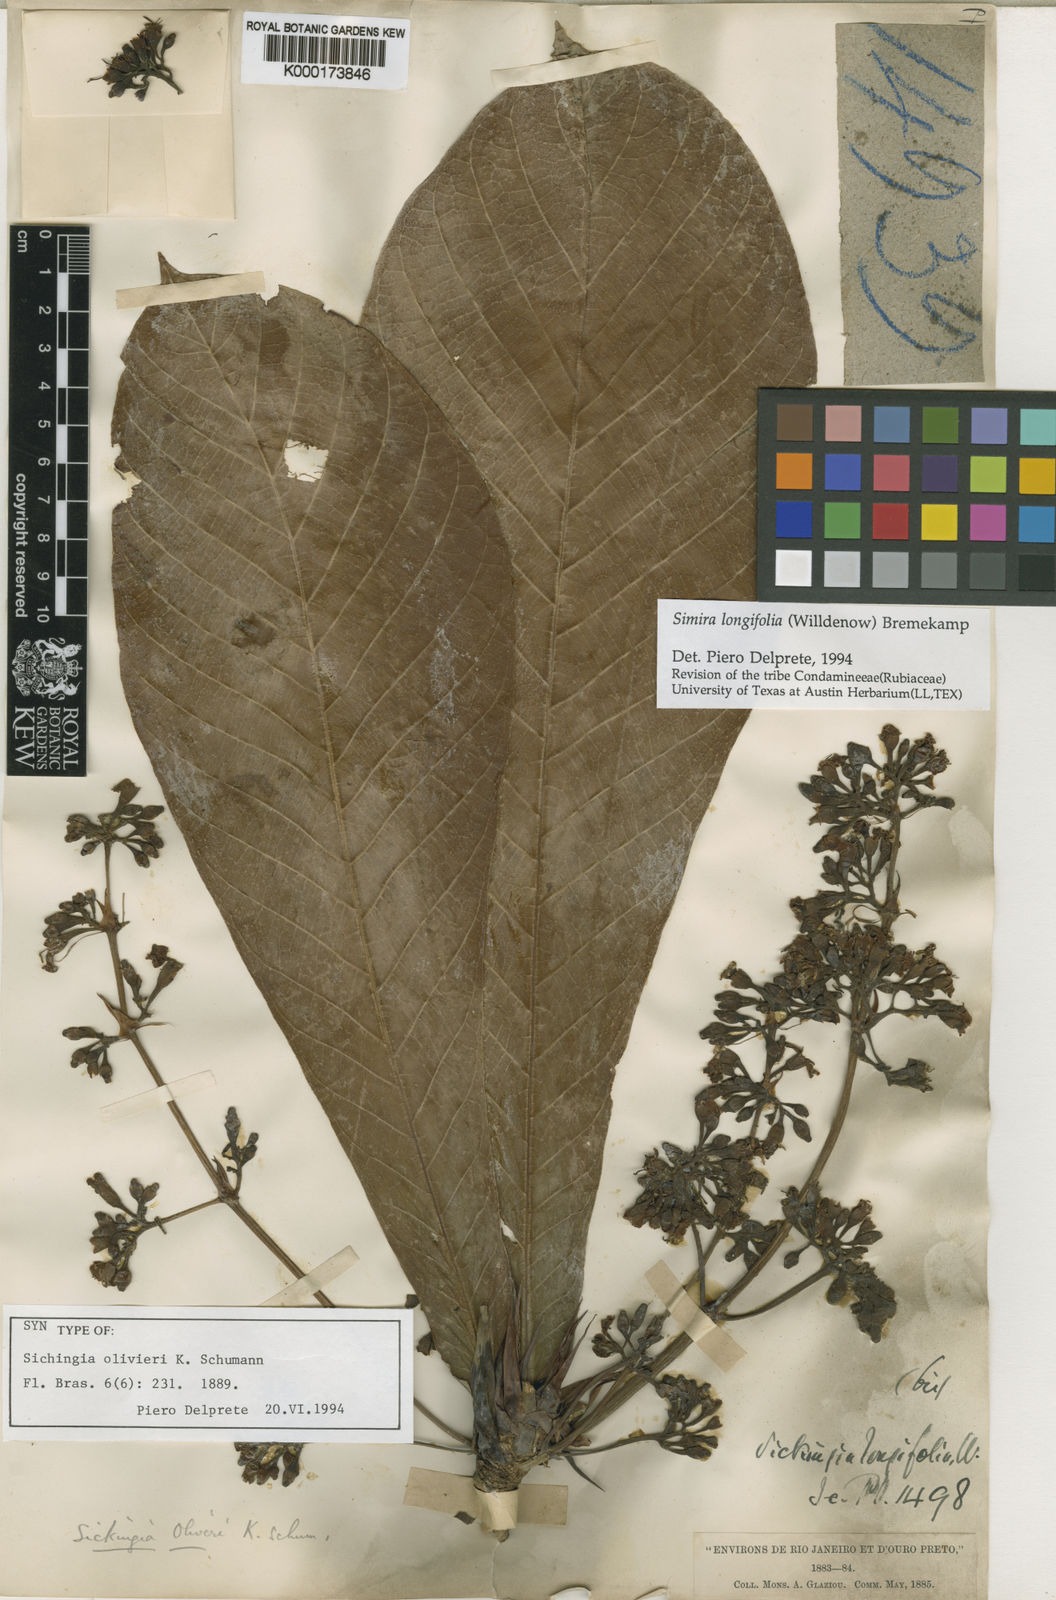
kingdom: Plantae
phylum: Tracheophyta
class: Magnoliopsida
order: Gentianales
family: Rubiaceae
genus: Simira
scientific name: Simira longifolia
